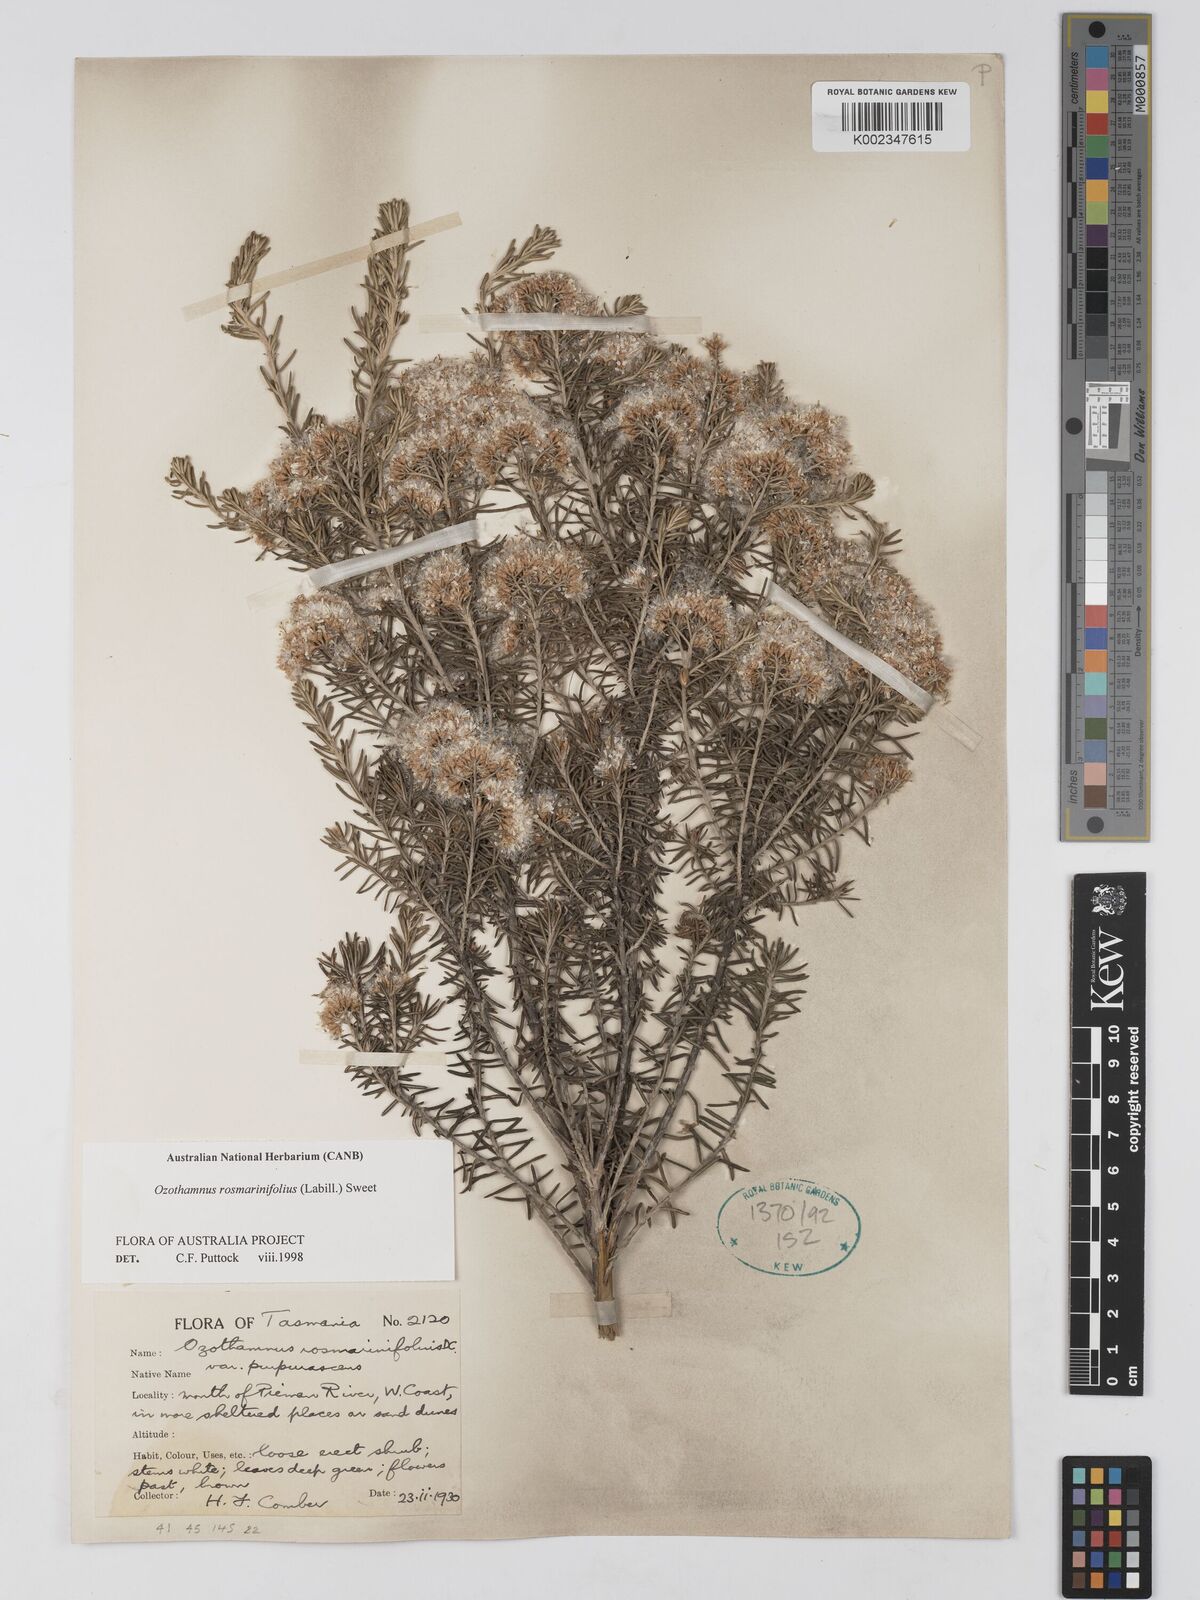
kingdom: Plantae
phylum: Tracheophyta
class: Magnoliopsida
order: Asterales
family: Asteraceae
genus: Ozothamnus
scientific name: Ozothamnus rosmarinifolius
